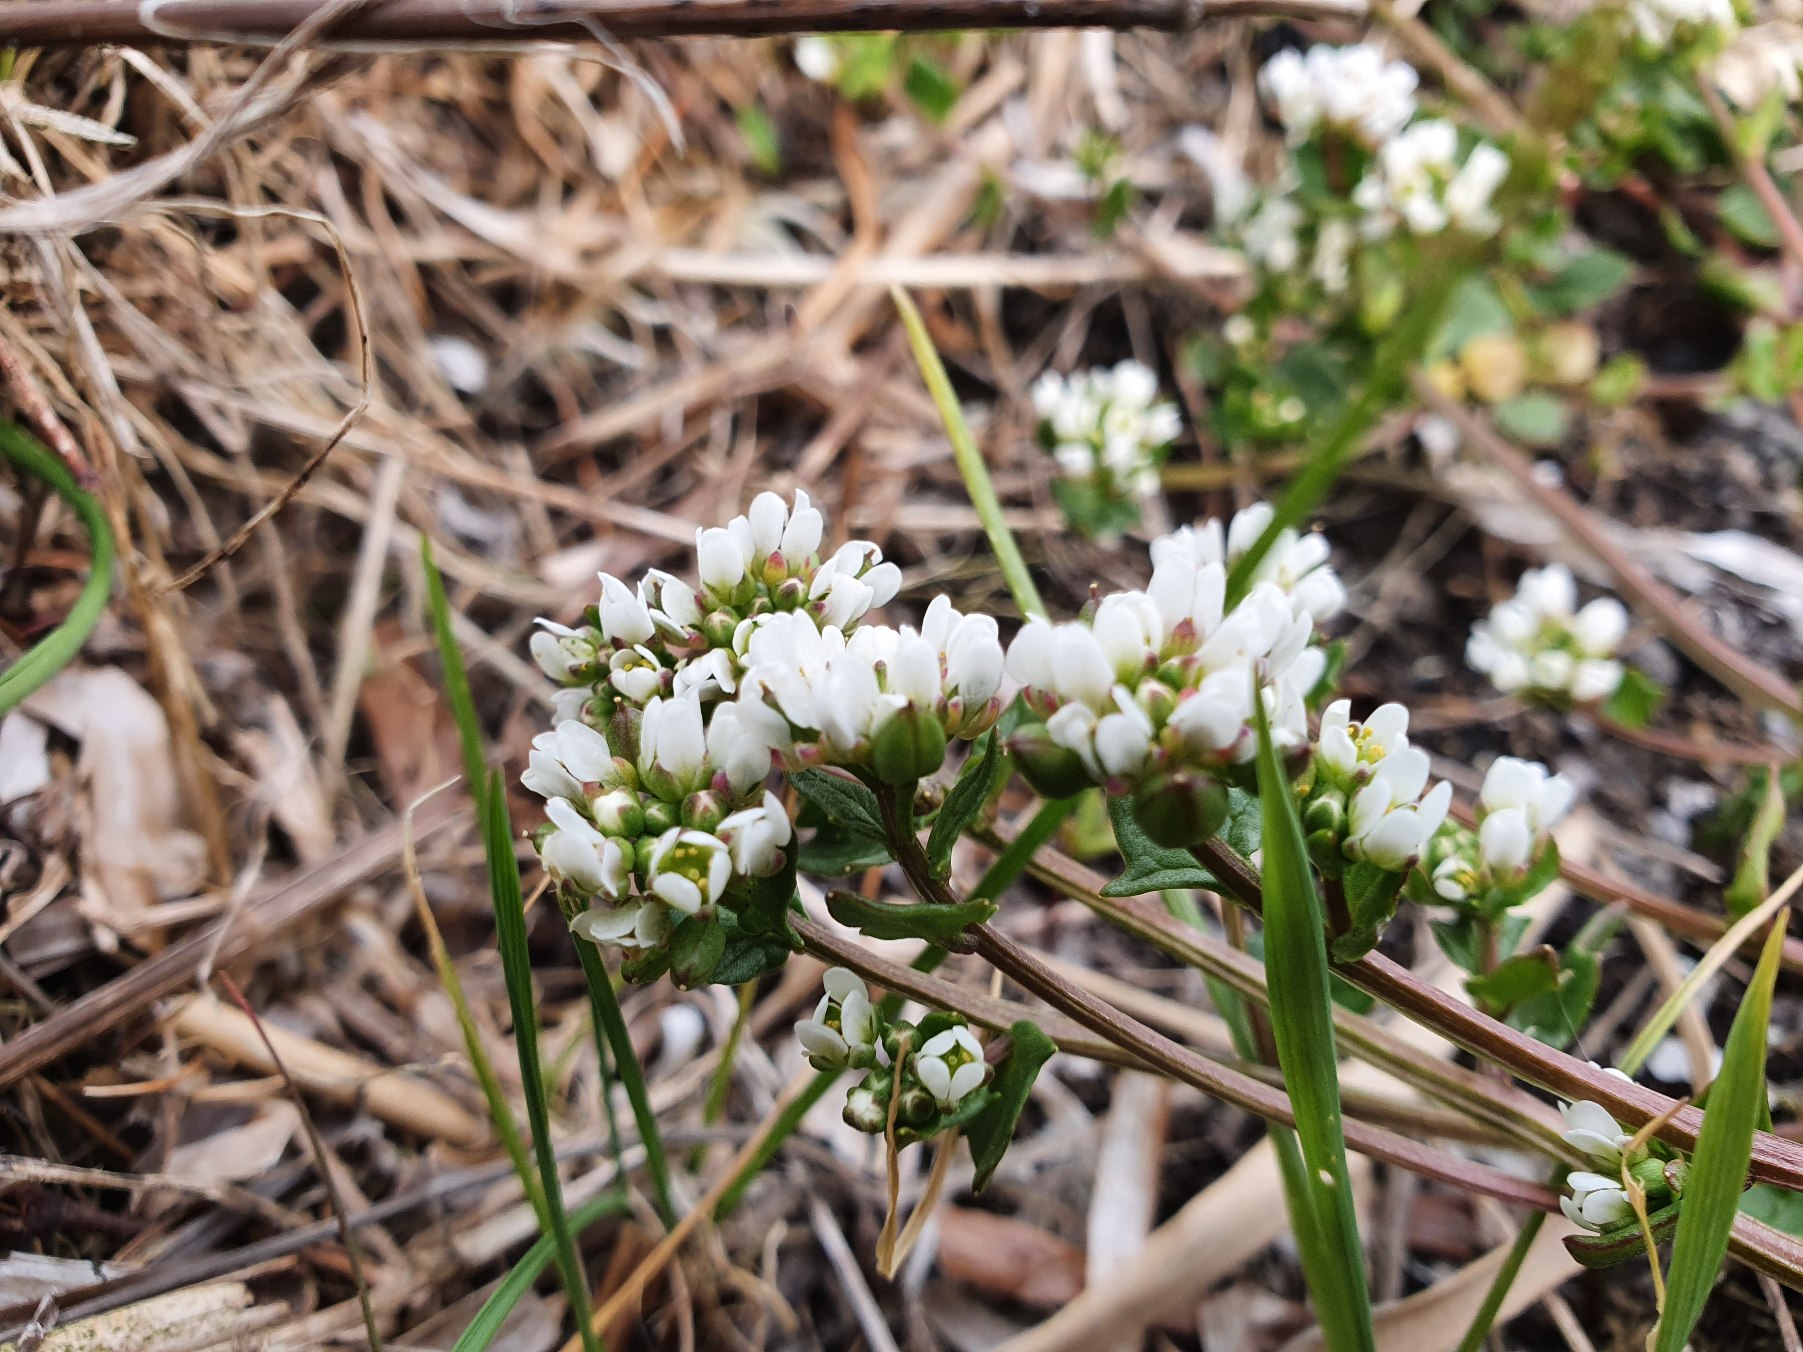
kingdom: Plantae
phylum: Tracheophyta
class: Magnoliopsida
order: Brassicales
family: Brassicaceae
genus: Cochlearia
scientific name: Cochlearia danica
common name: Dansk kokleare
